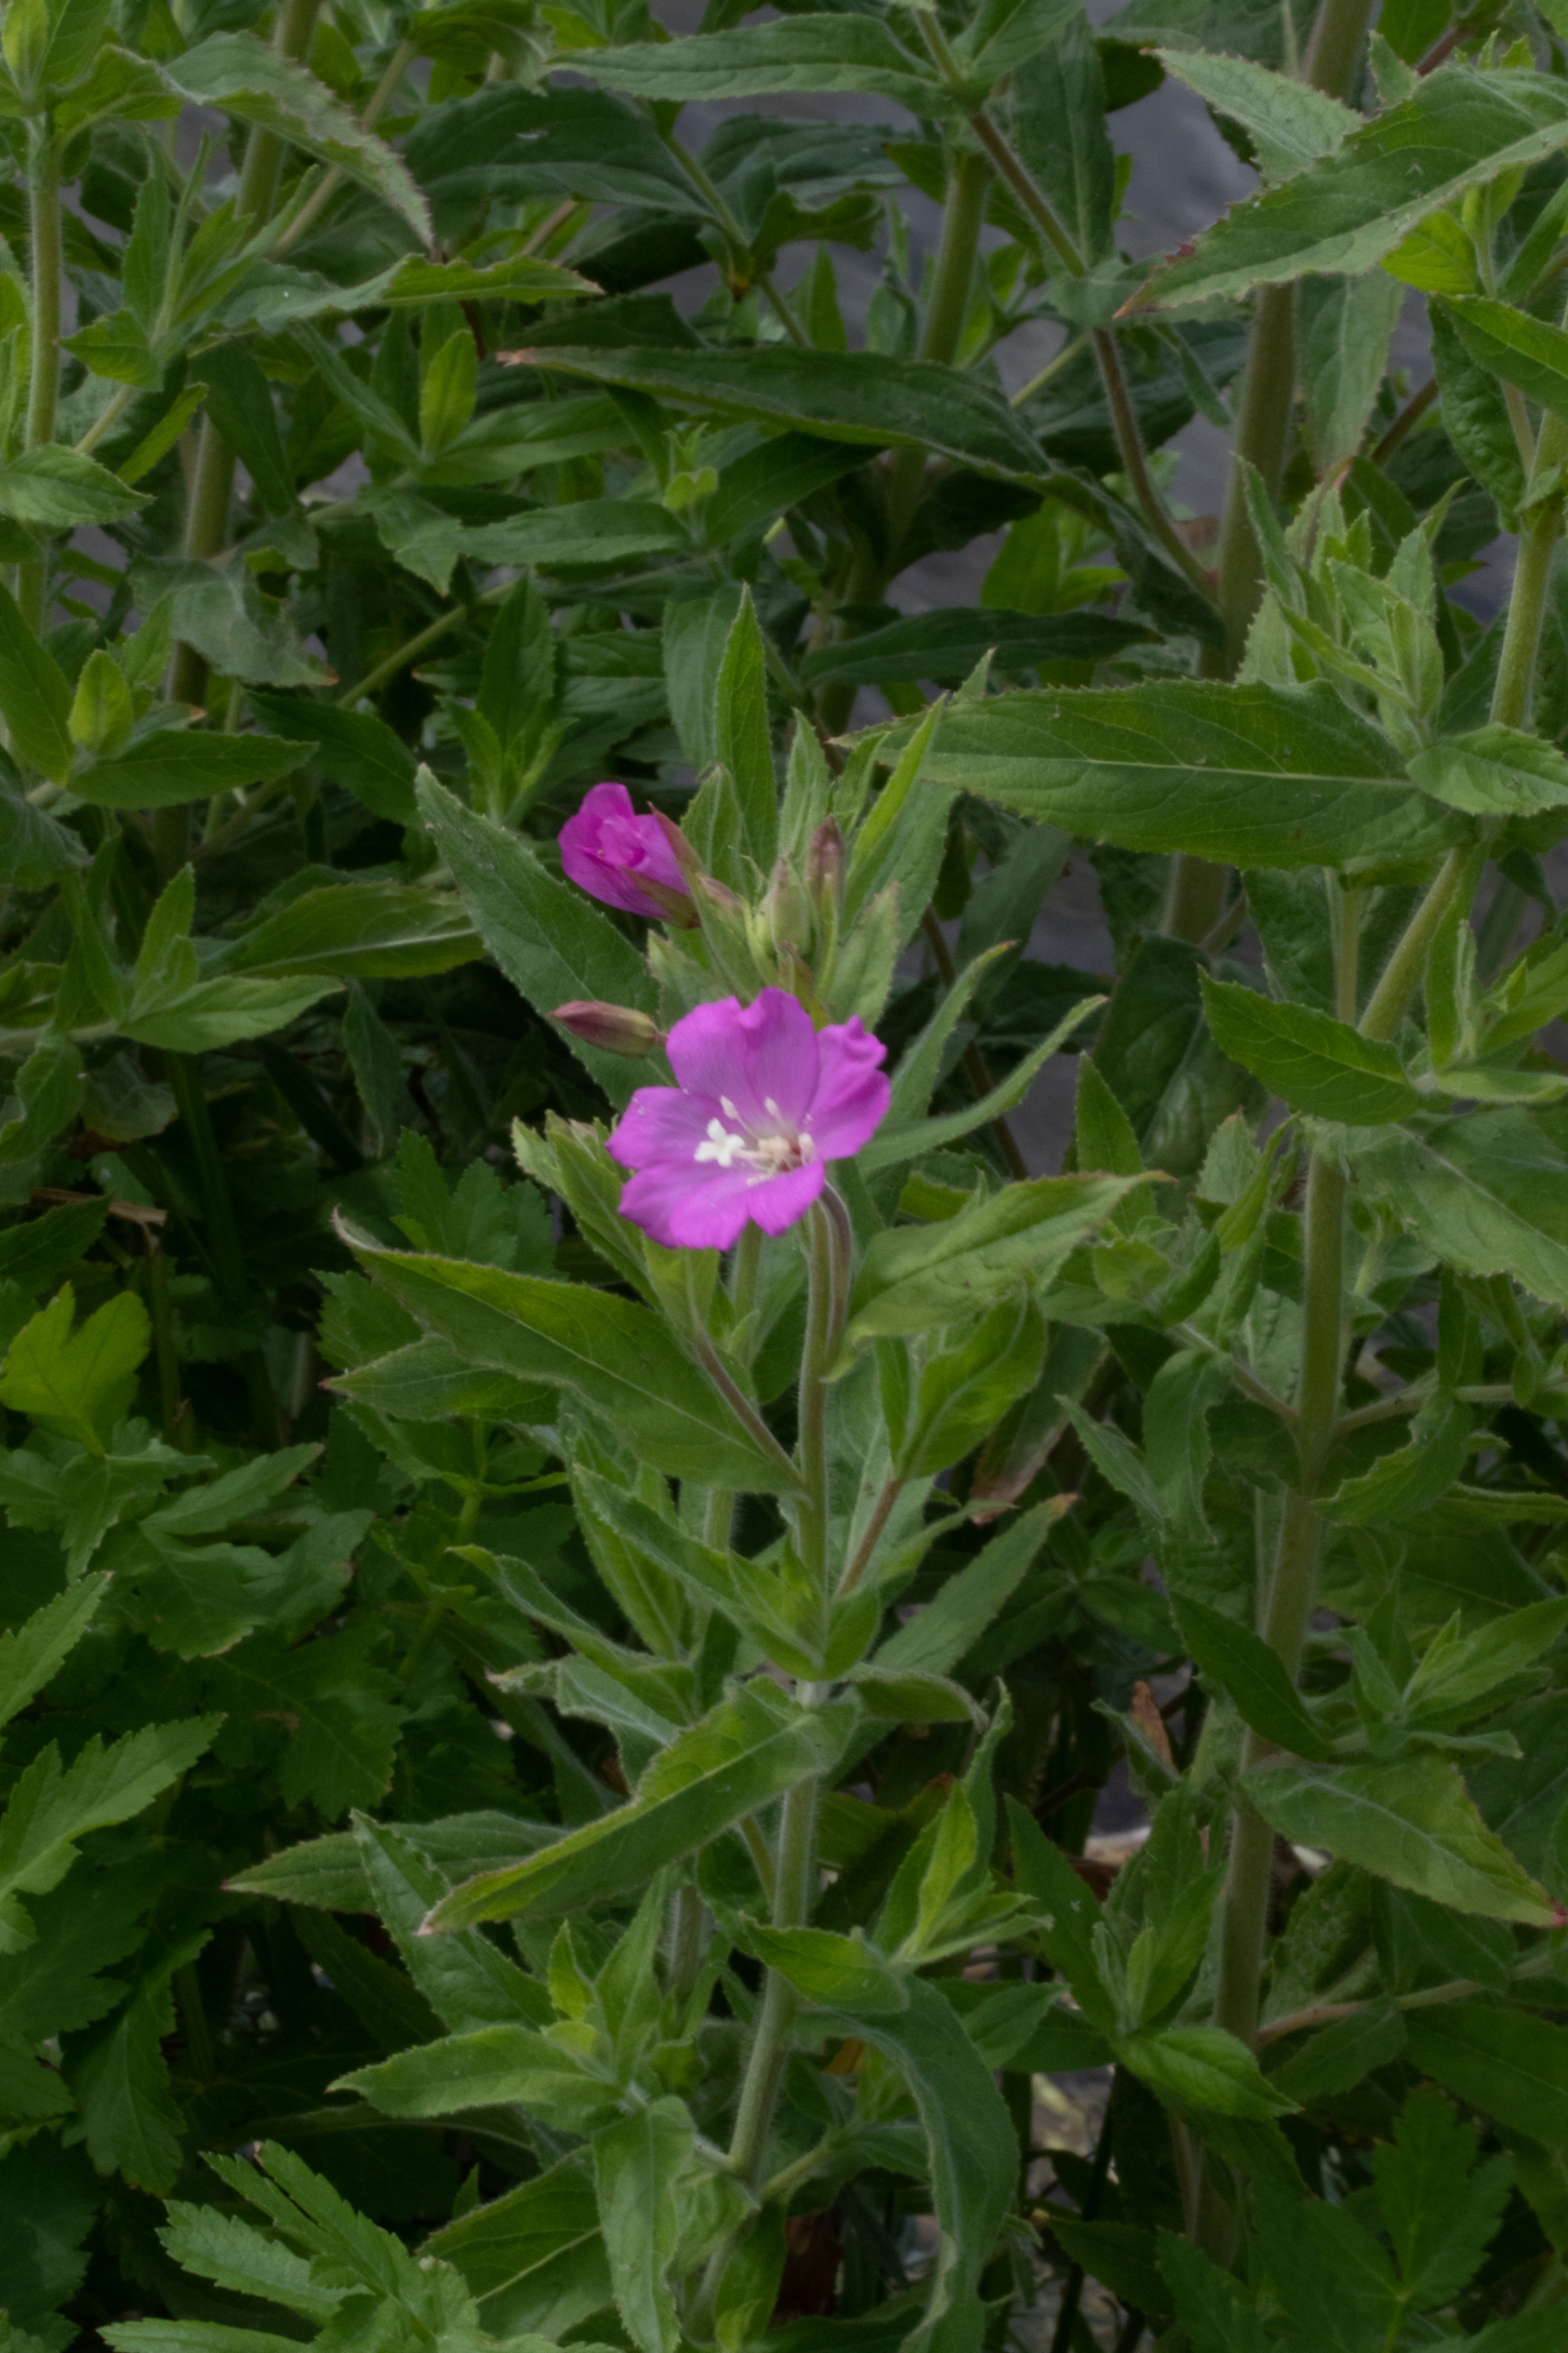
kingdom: Plantae
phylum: Tracheophyta
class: Magnoliopsida
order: Myrtales
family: Onagraceae
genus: Epilobium
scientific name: Epilobium hirsutum
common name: Lådden dueurt
